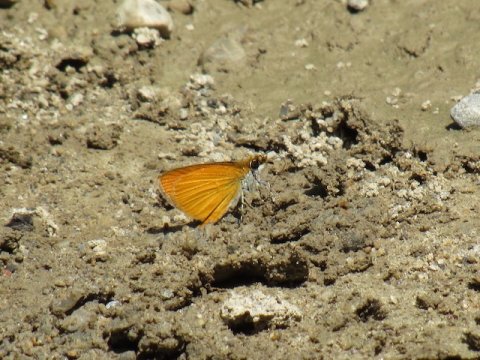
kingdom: Animalia
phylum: Arthropoda
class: Insecta
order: Lepidoptera
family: Hesperiidae
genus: Ancyloxypha
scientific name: Ancyloxypha numitor
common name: Least Skipper
